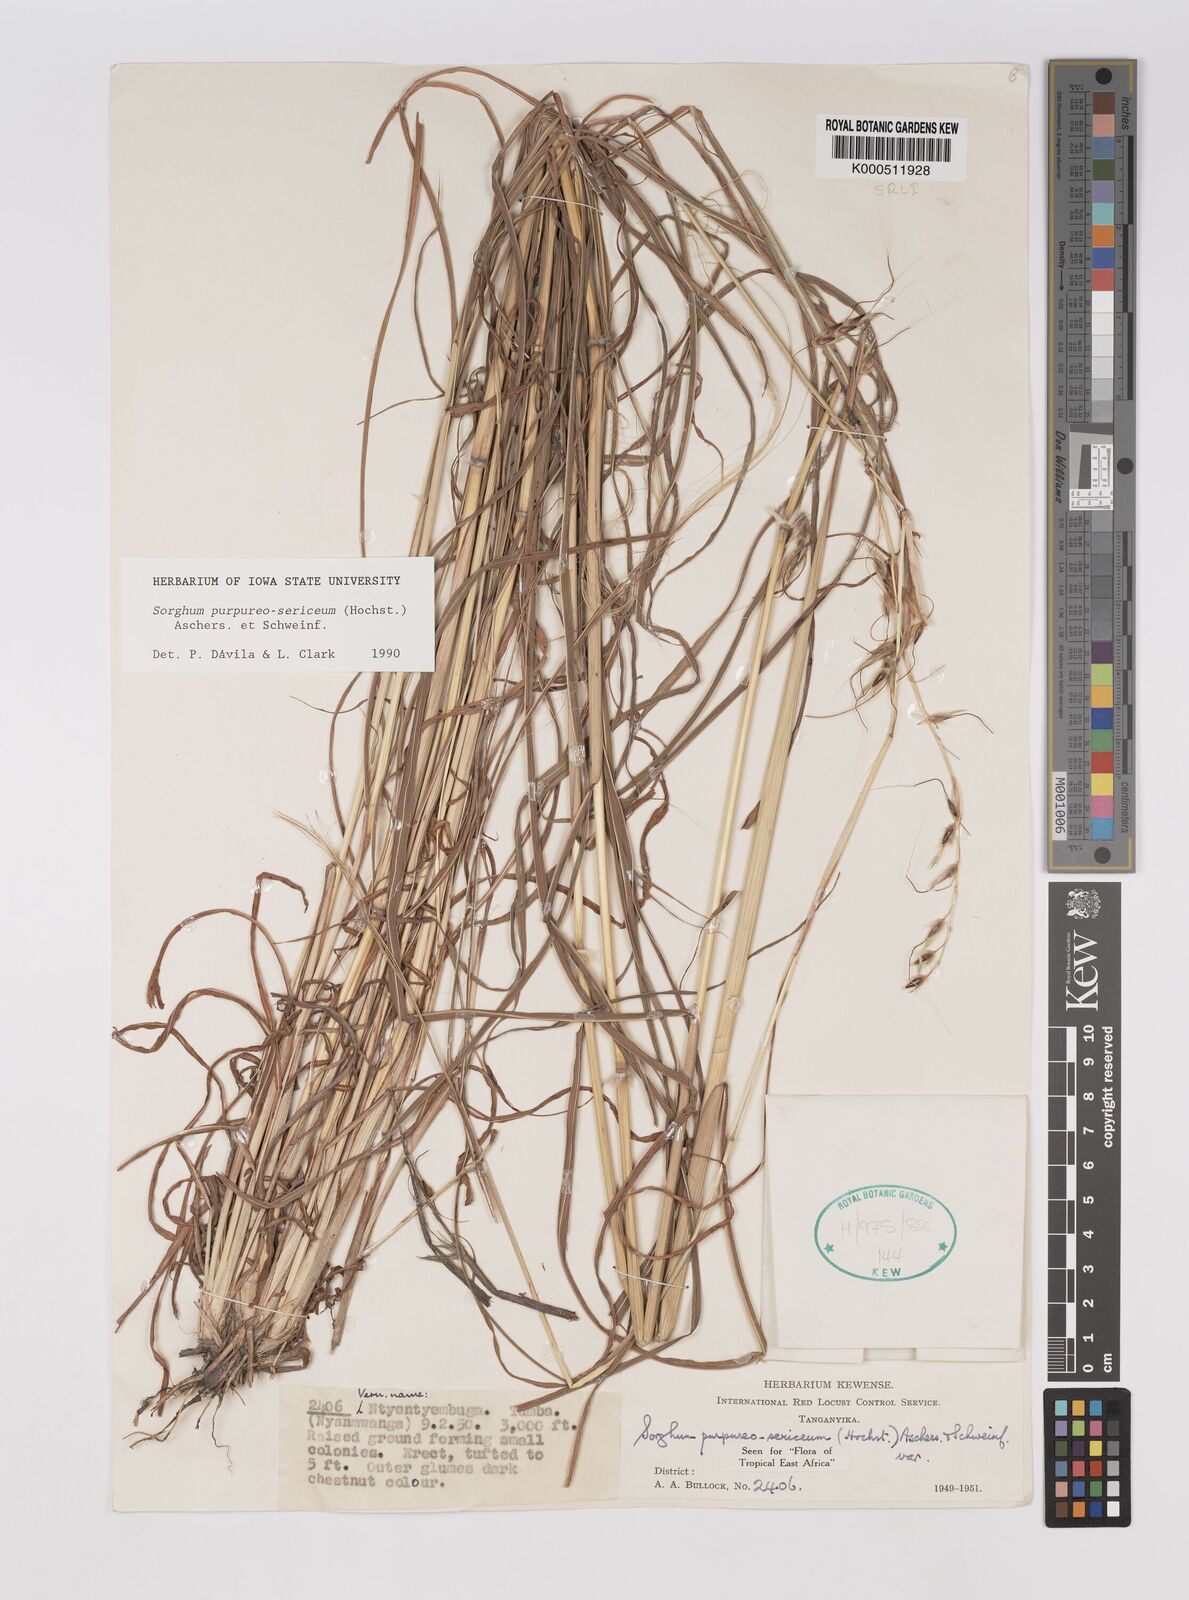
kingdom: Plantae
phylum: Tracheophyta
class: Liliopsida
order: Poales
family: Poaceae
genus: Sarga
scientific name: Sarga purpureosericea
